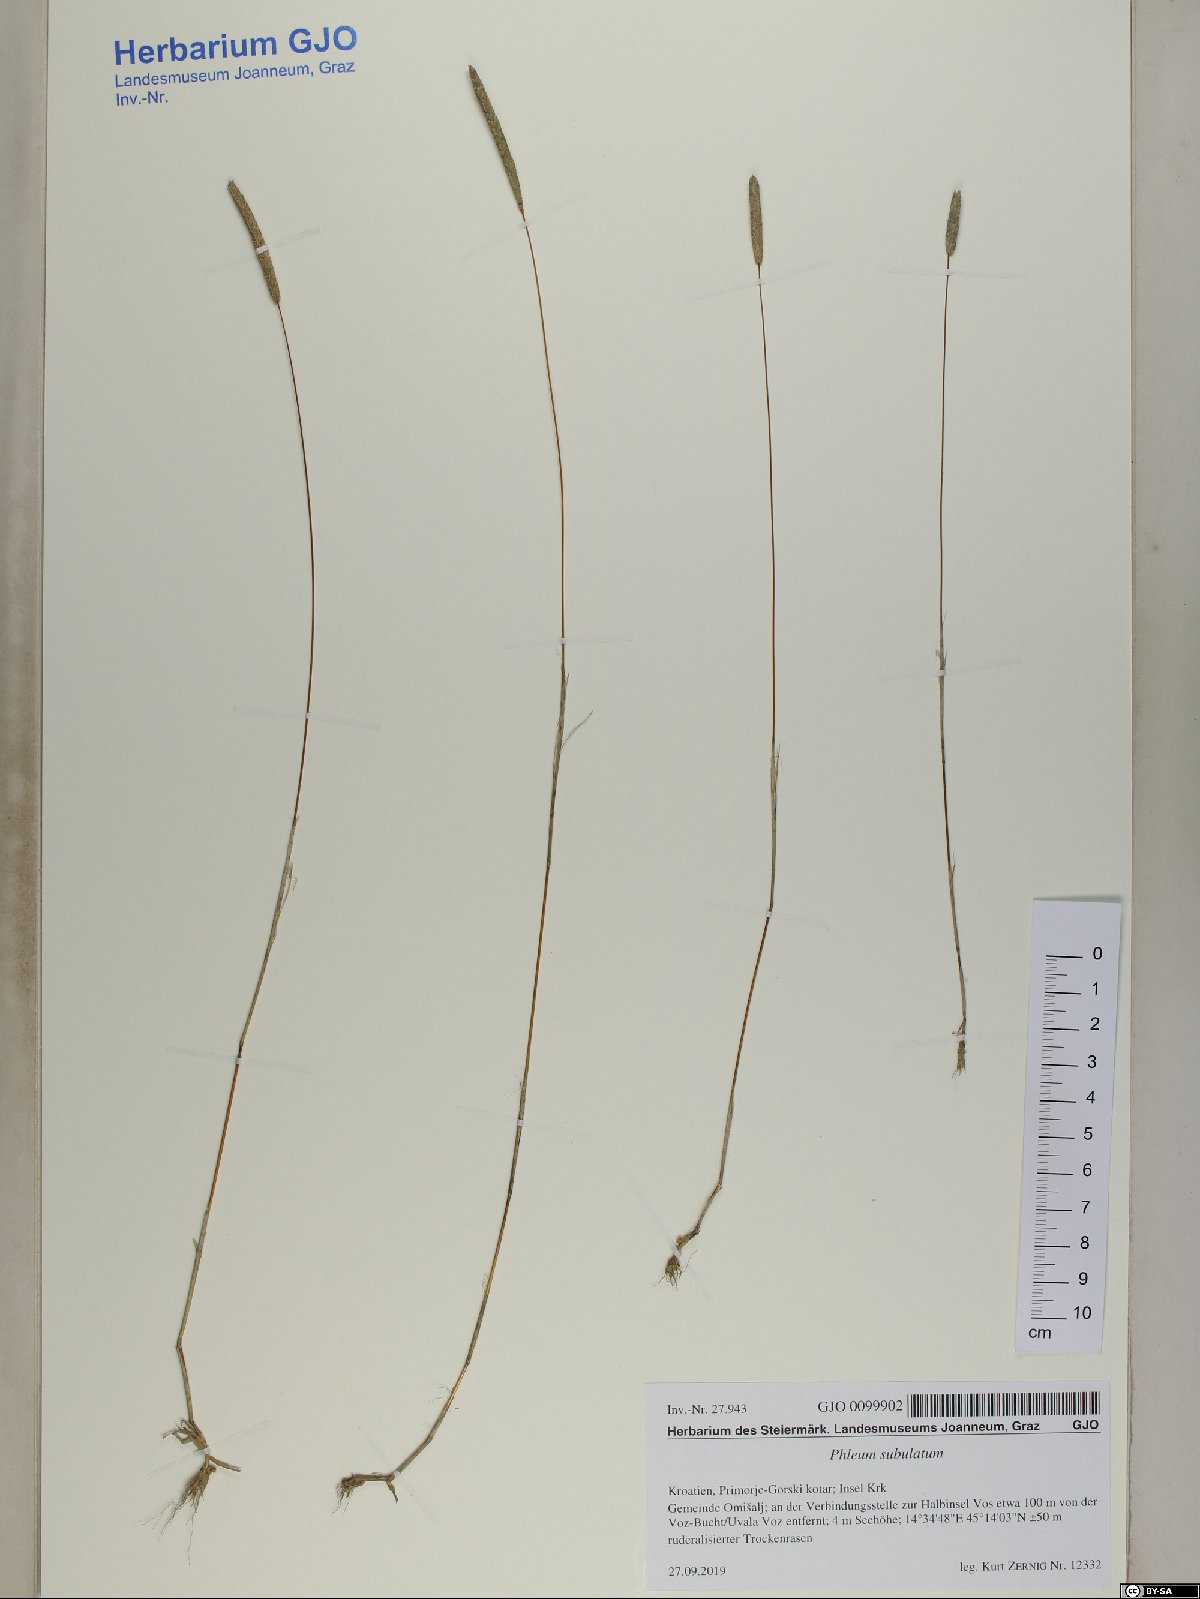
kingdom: Plantae
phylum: Tracheophyta
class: Liliopsida
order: Poales
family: Poaceae
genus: Phleum
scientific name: Phleum subulatum
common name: Italian timothy
